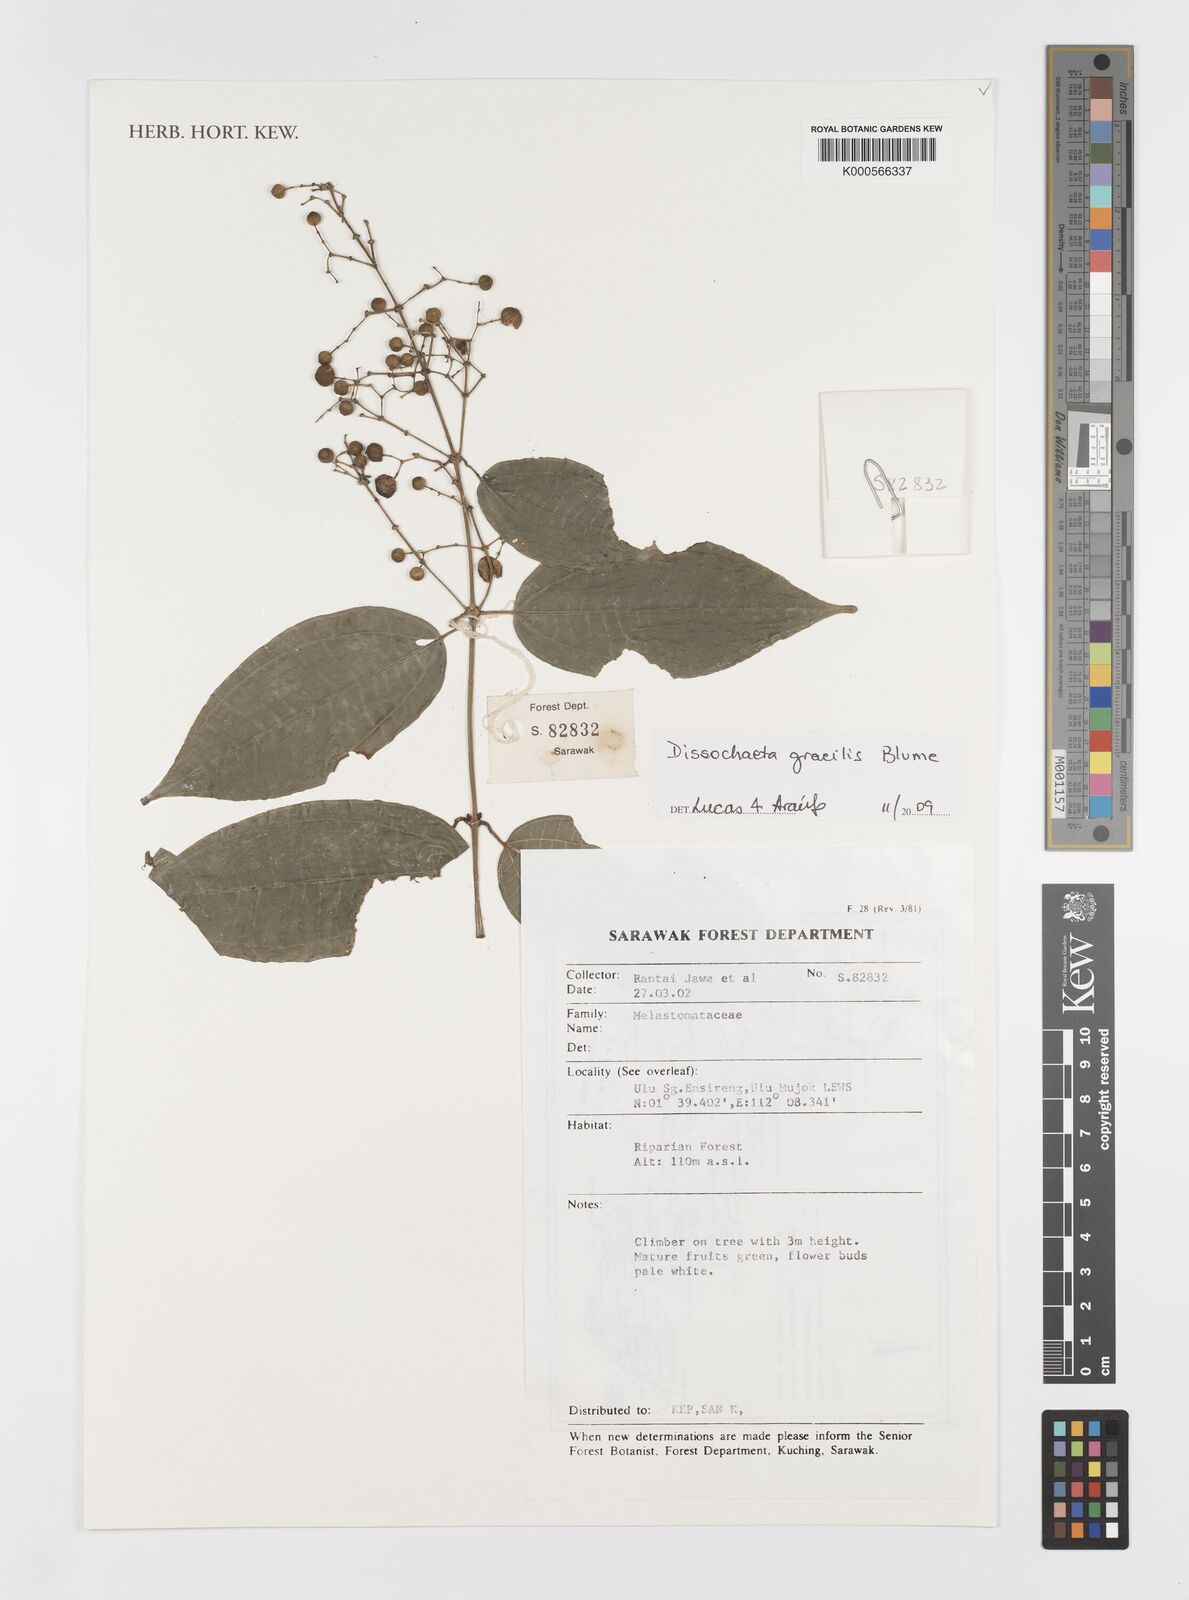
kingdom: Plantae
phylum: Tracheophyta
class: Magnoliopsida
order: Myrtales
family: Melastomataceae
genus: Dissochaeta
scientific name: Dissochaeta gracilis
